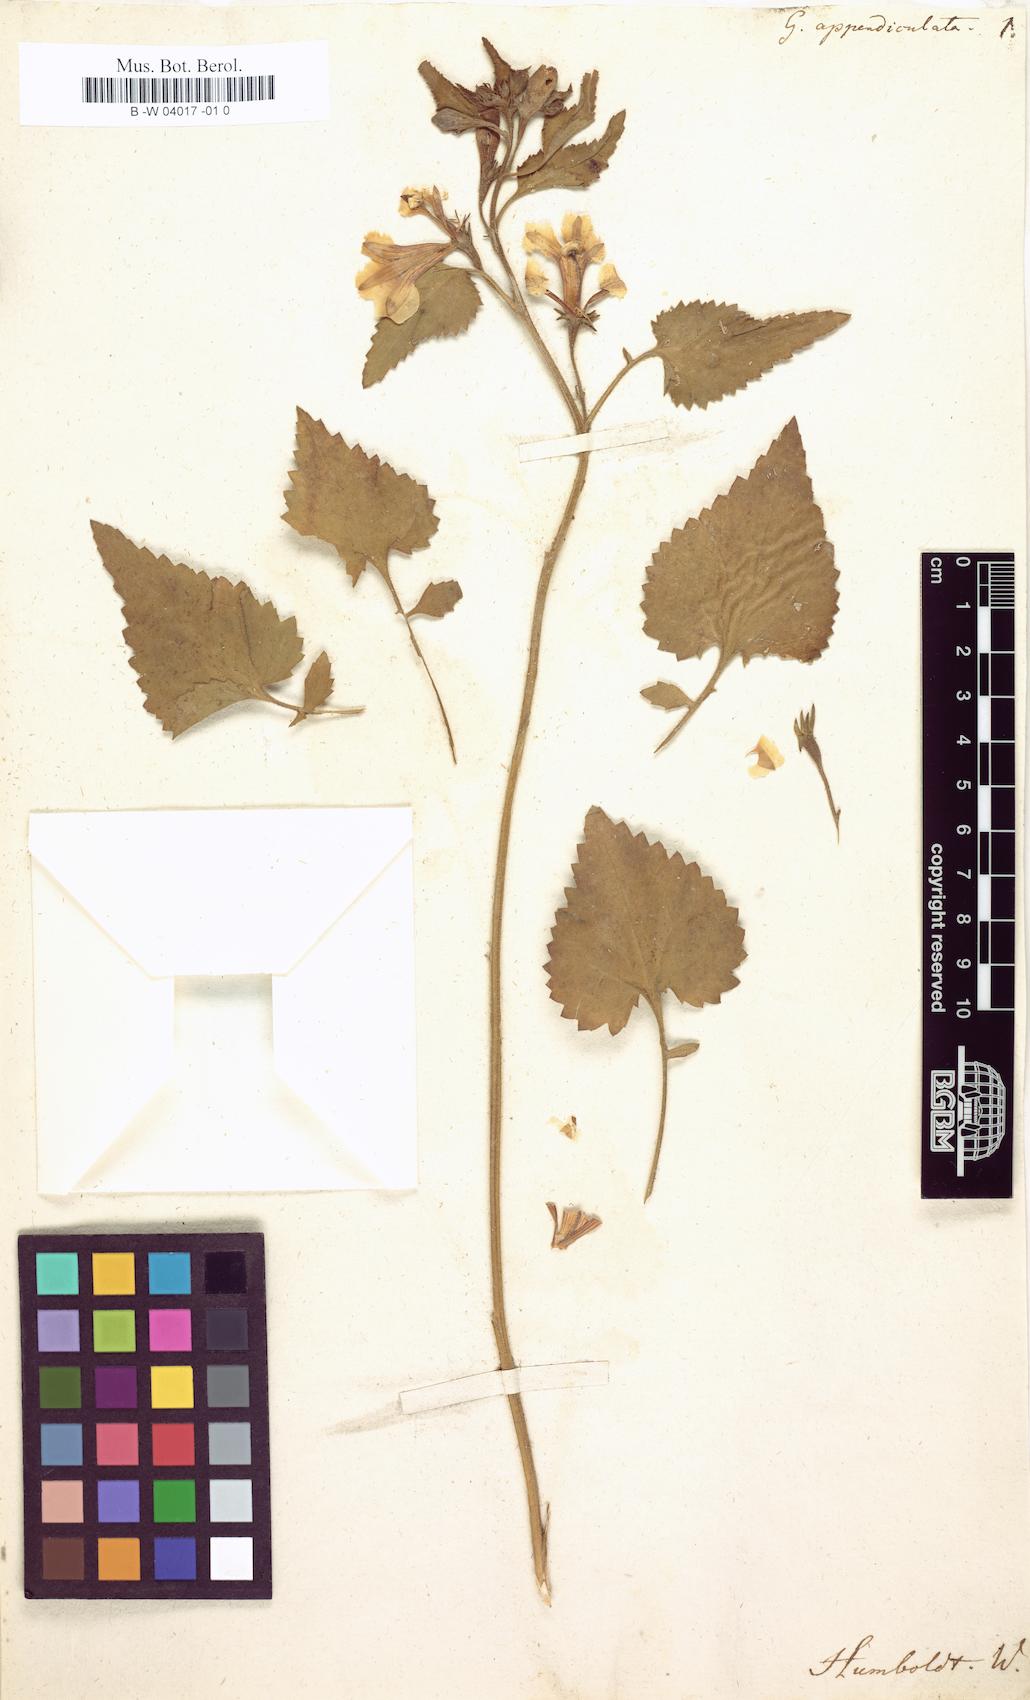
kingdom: Plantae
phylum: Tracheophyta
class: Magnoliopsida
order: Asterales
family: Goodeniaceae
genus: Goodenia
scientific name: Goodenia grandiflora
